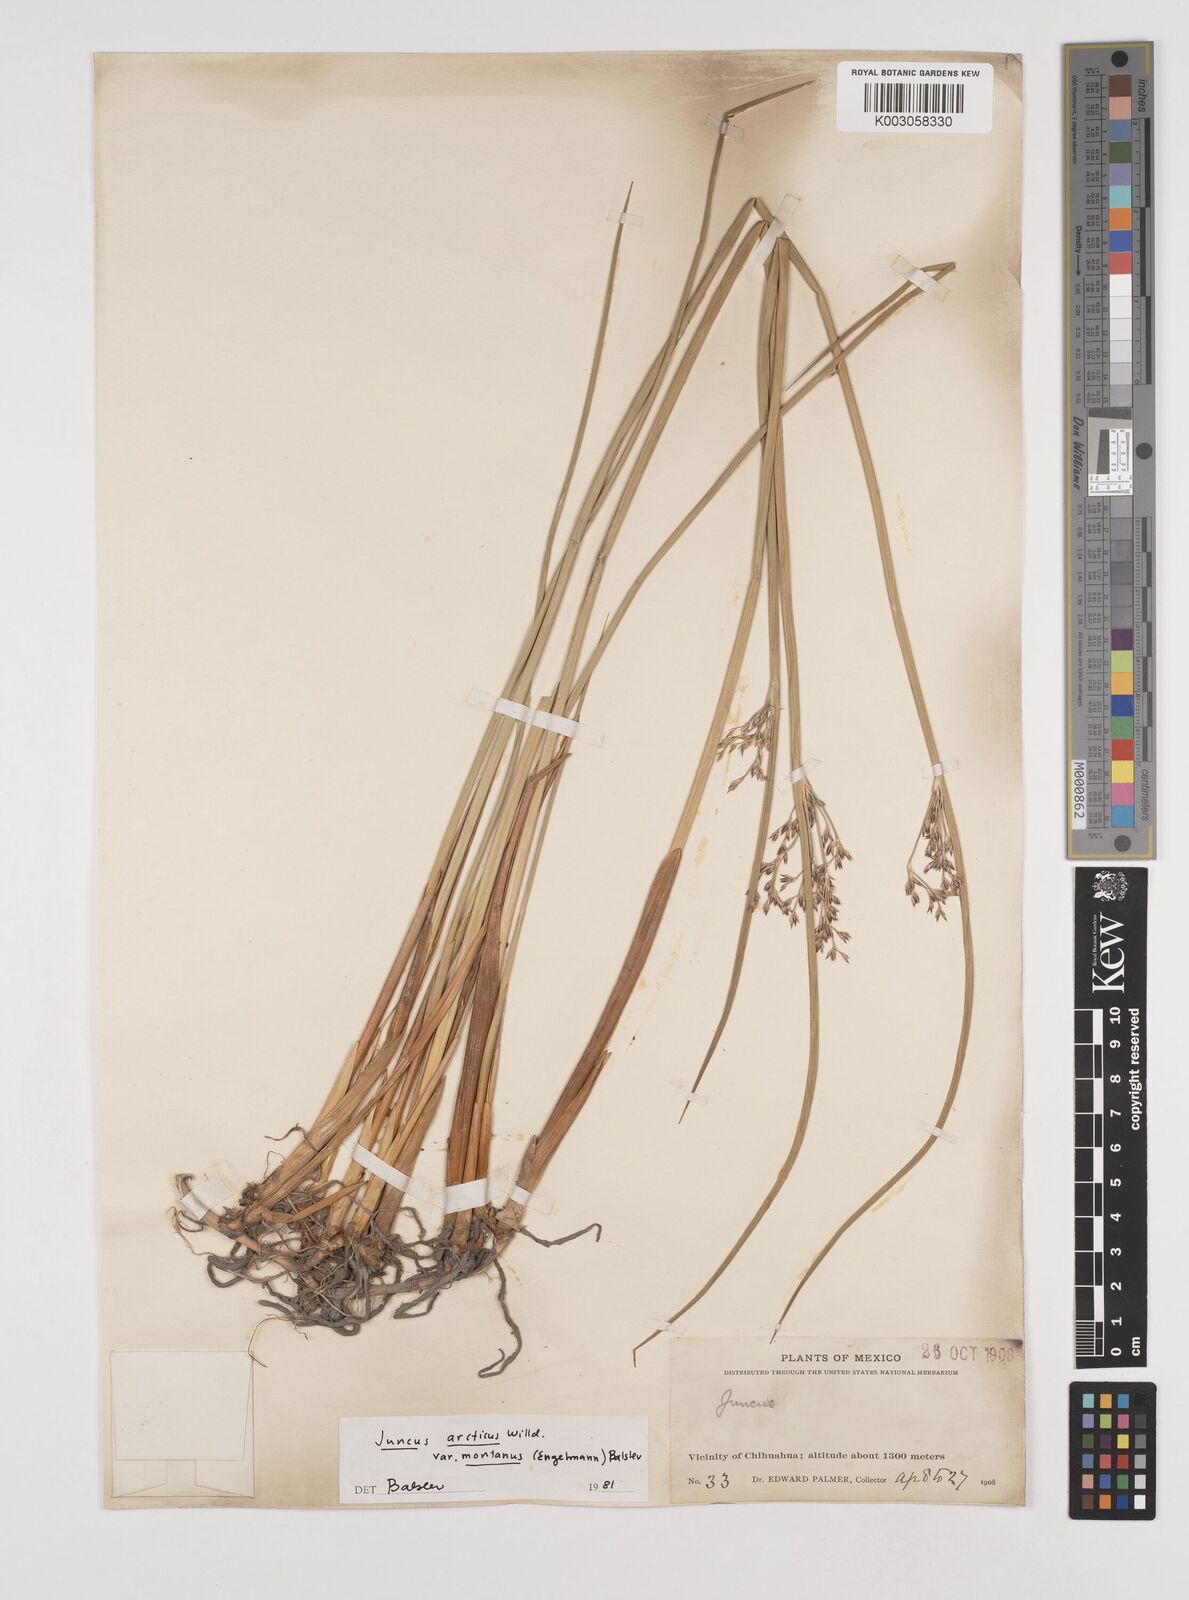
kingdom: Plantae
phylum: Tracheophyta
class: Liliopsida
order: Poales
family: Juncaceae
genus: Juncus
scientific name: Juncus arcticus
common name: Arctic rush
